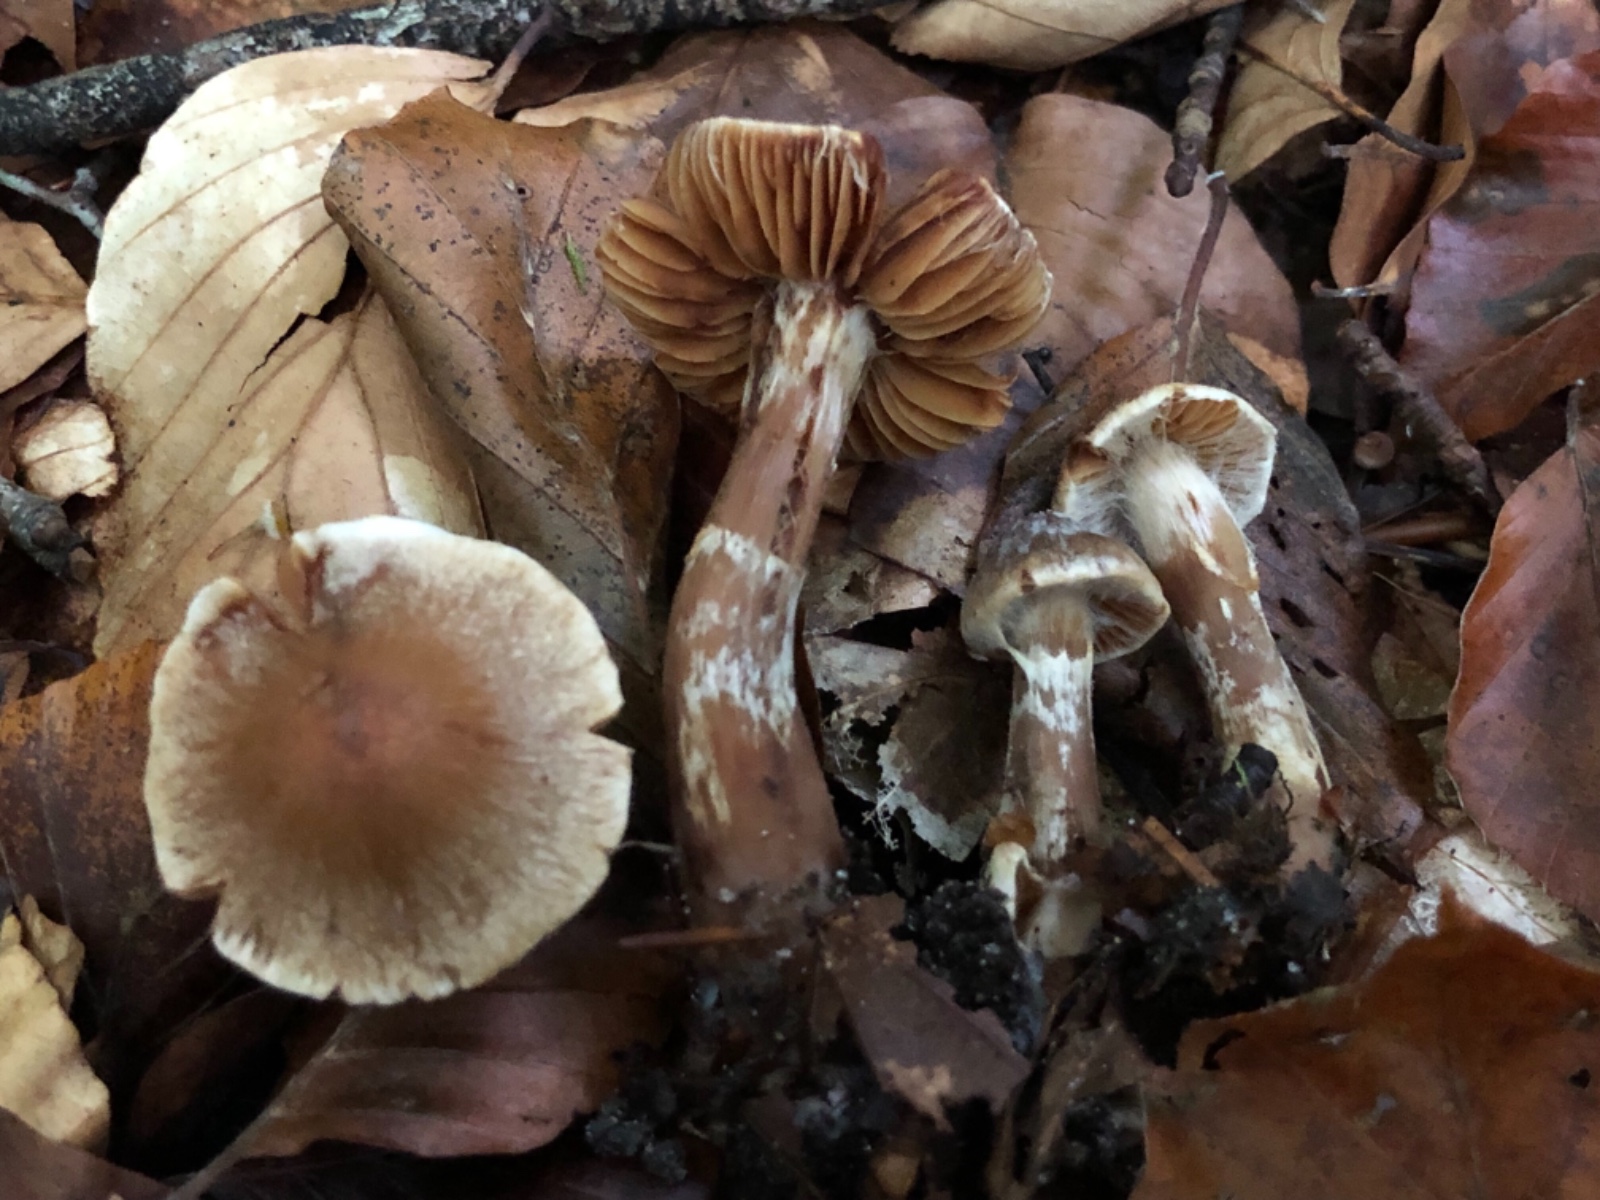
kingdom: Fungi
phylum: Basidiomycota
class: Agaricomycetes
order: Agaricales
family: Cortinariaceae
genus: Cortinarius
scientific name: Cortinarius
